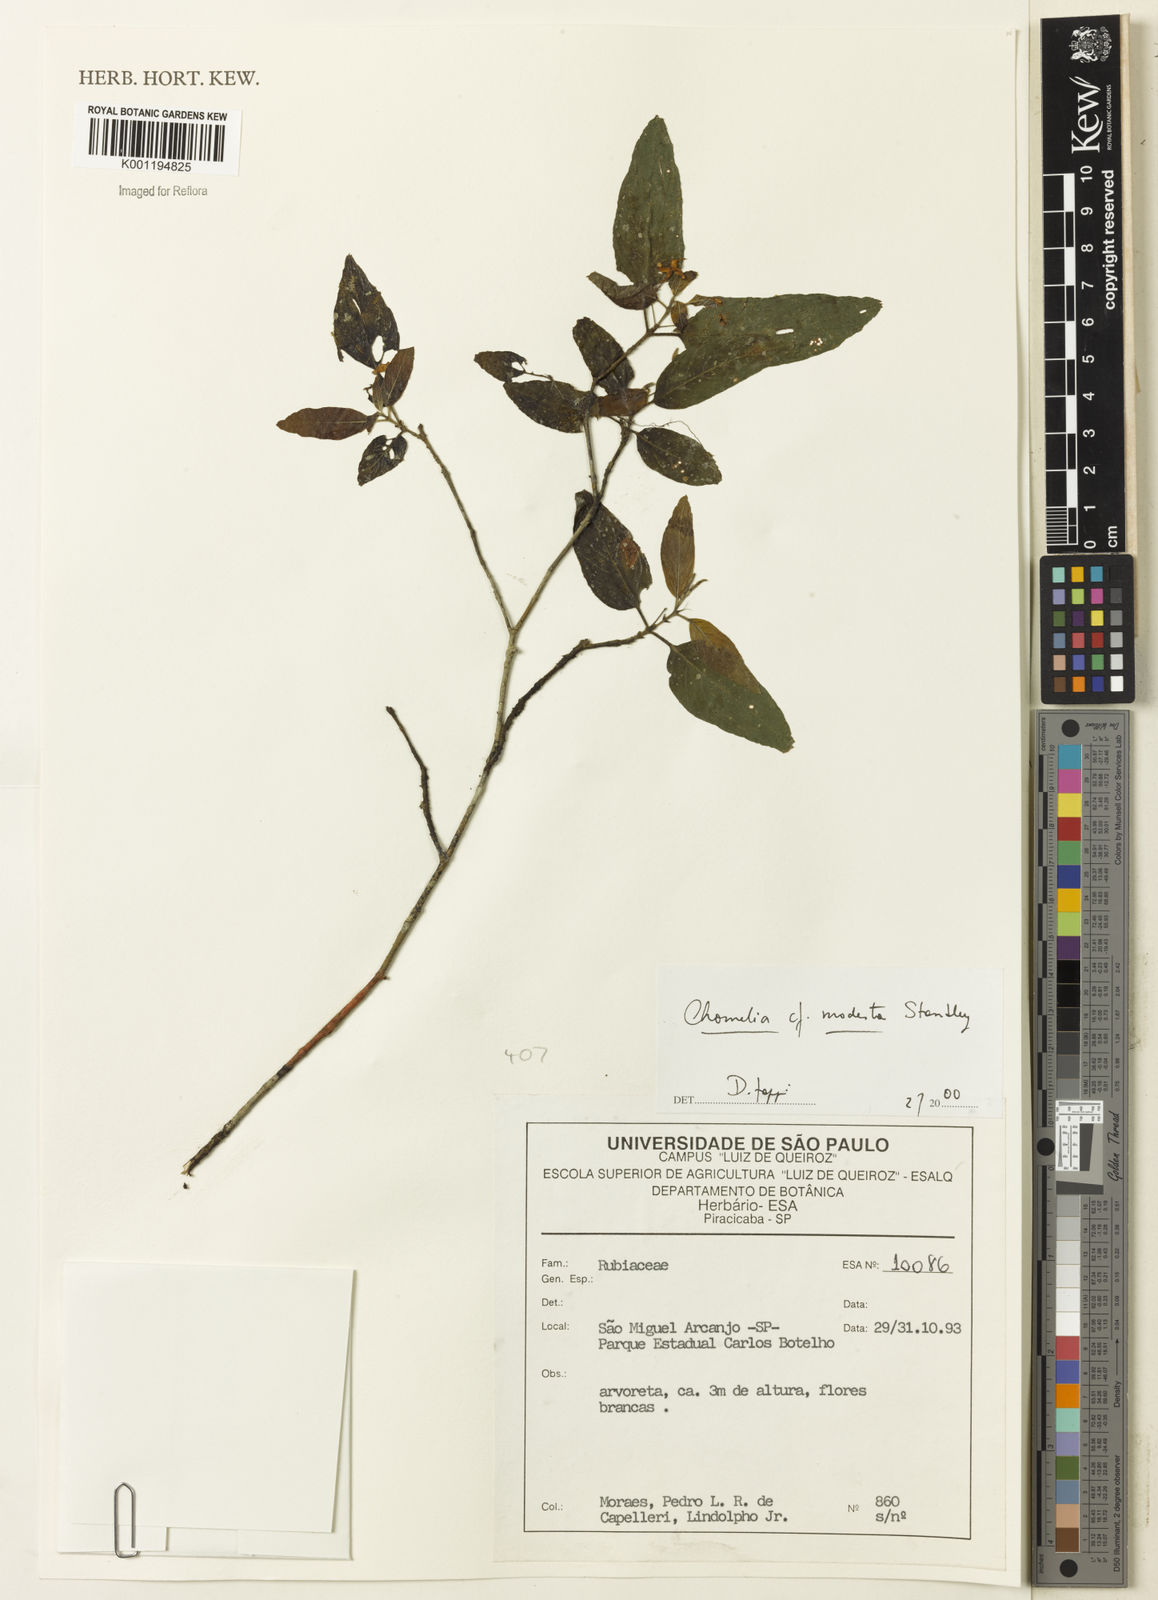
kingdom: Plantae
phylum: Tracheophyta
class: Magnoliopsida
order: Gentianales
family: Rubiaceae
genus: Chomelia
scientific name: Chomelia modesta
